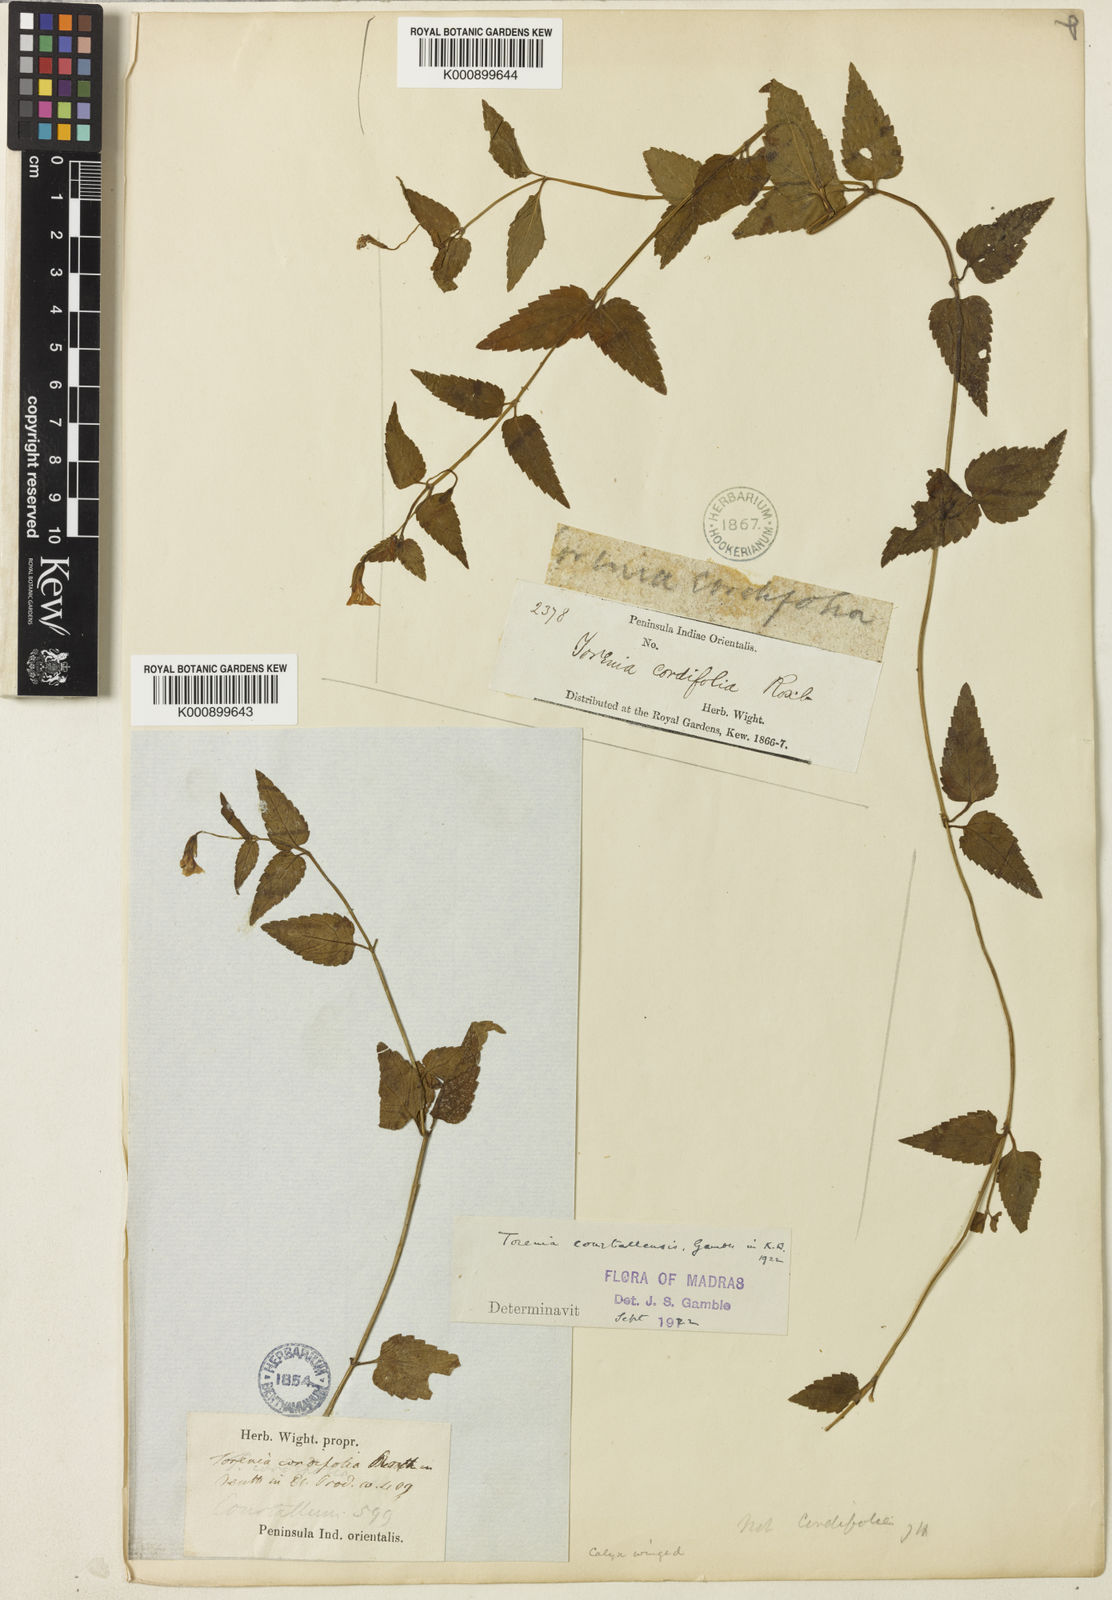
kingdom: Plantae
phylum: Tracheophyta
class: Magnoliopsida
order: Lamiales
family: Linderniaceae
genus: Torenia
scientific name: Torenia courtallensis
